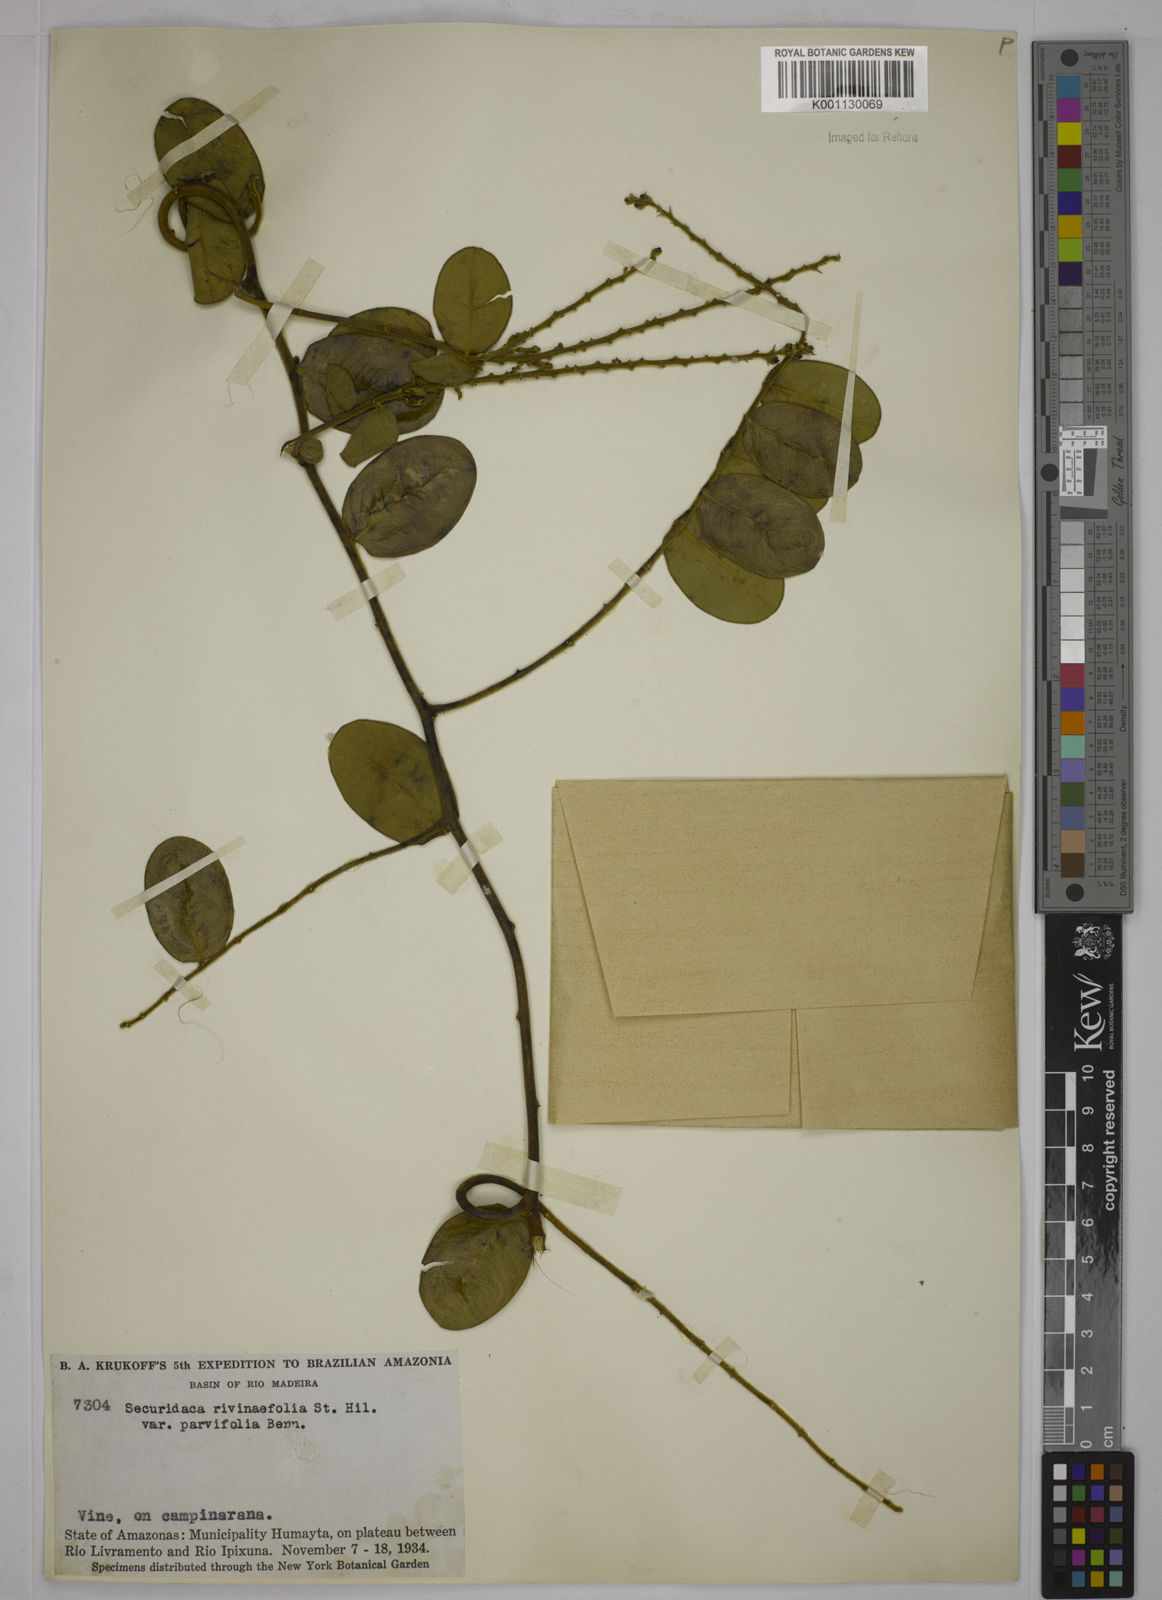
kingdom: Plantae
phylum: Tracheophyta
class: Magnoliopsida
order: Fabales
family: Polygalaceae
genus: Securidaca
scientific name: Securidaca rivinifolia
